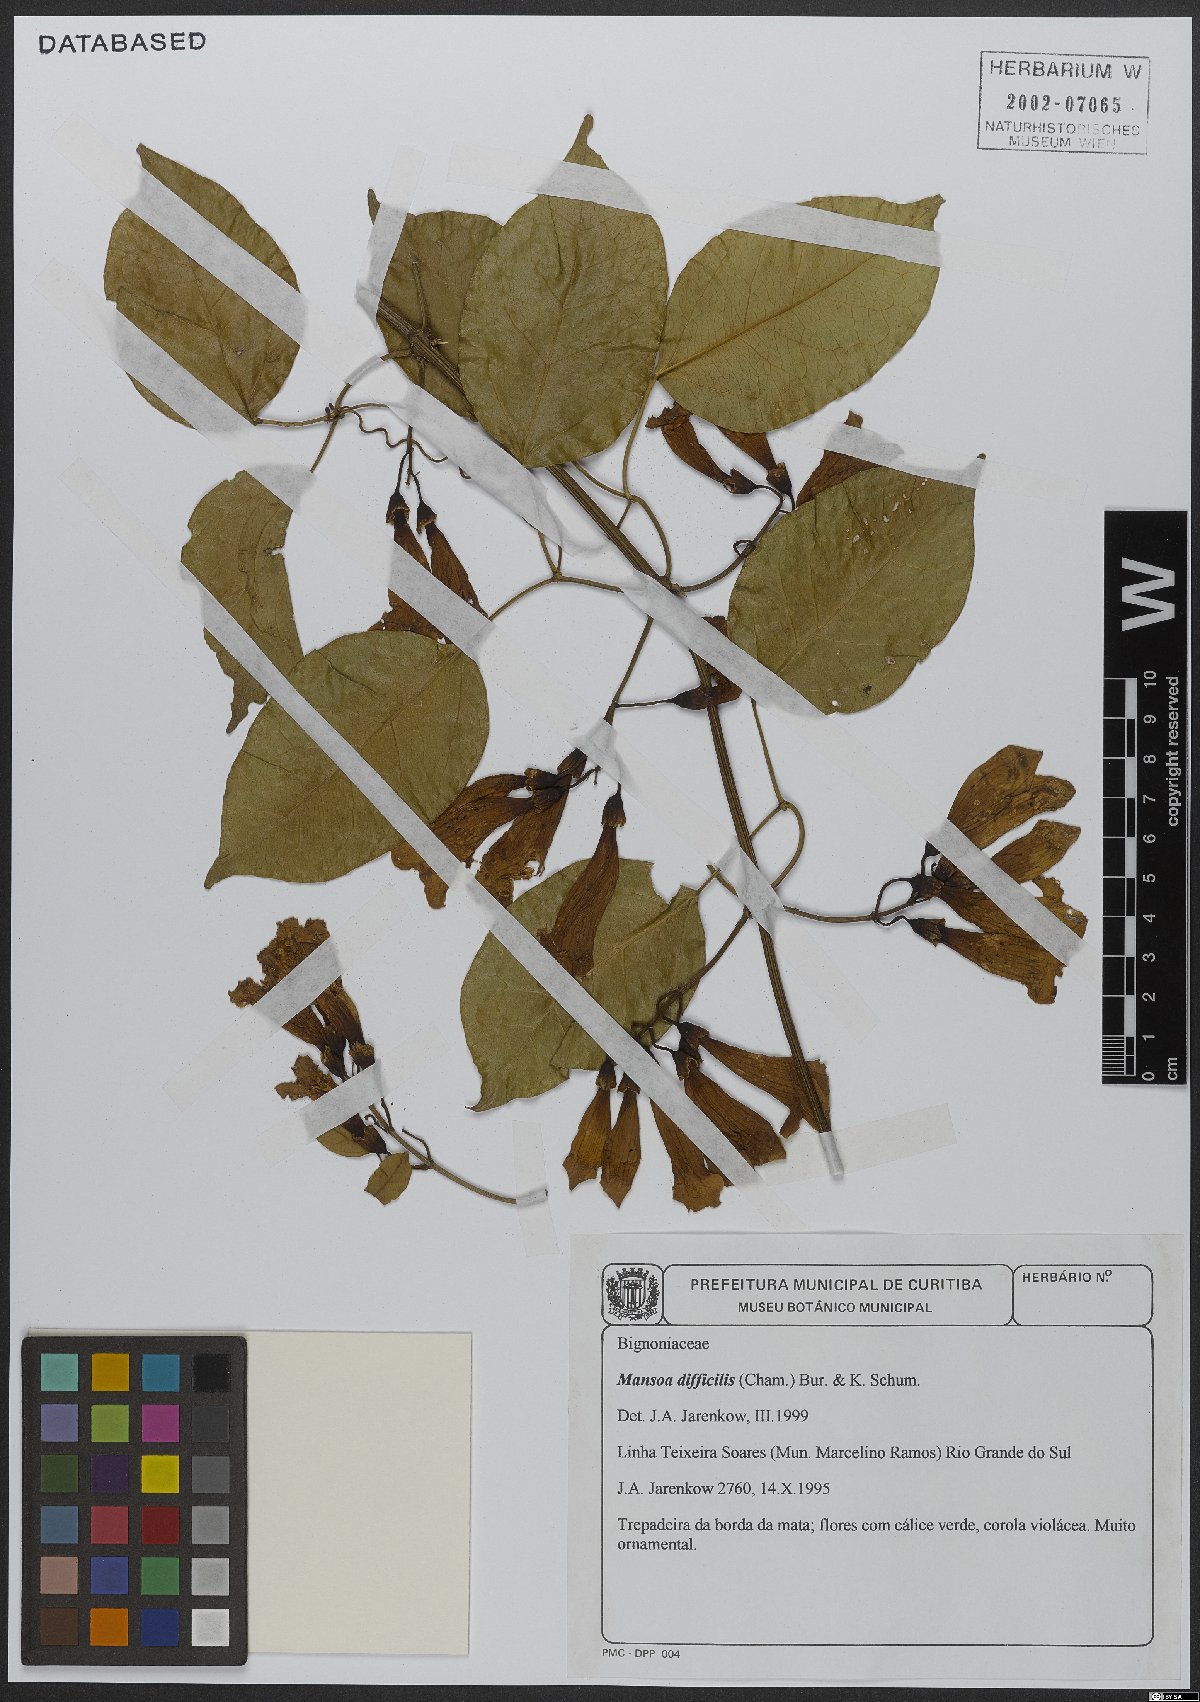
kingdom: Plantae
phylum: Tracheophyta
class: Magnoliopsida
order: Lamiales
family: Bignoniaceae
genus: Mansoa
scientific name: Mansoa difficilis
